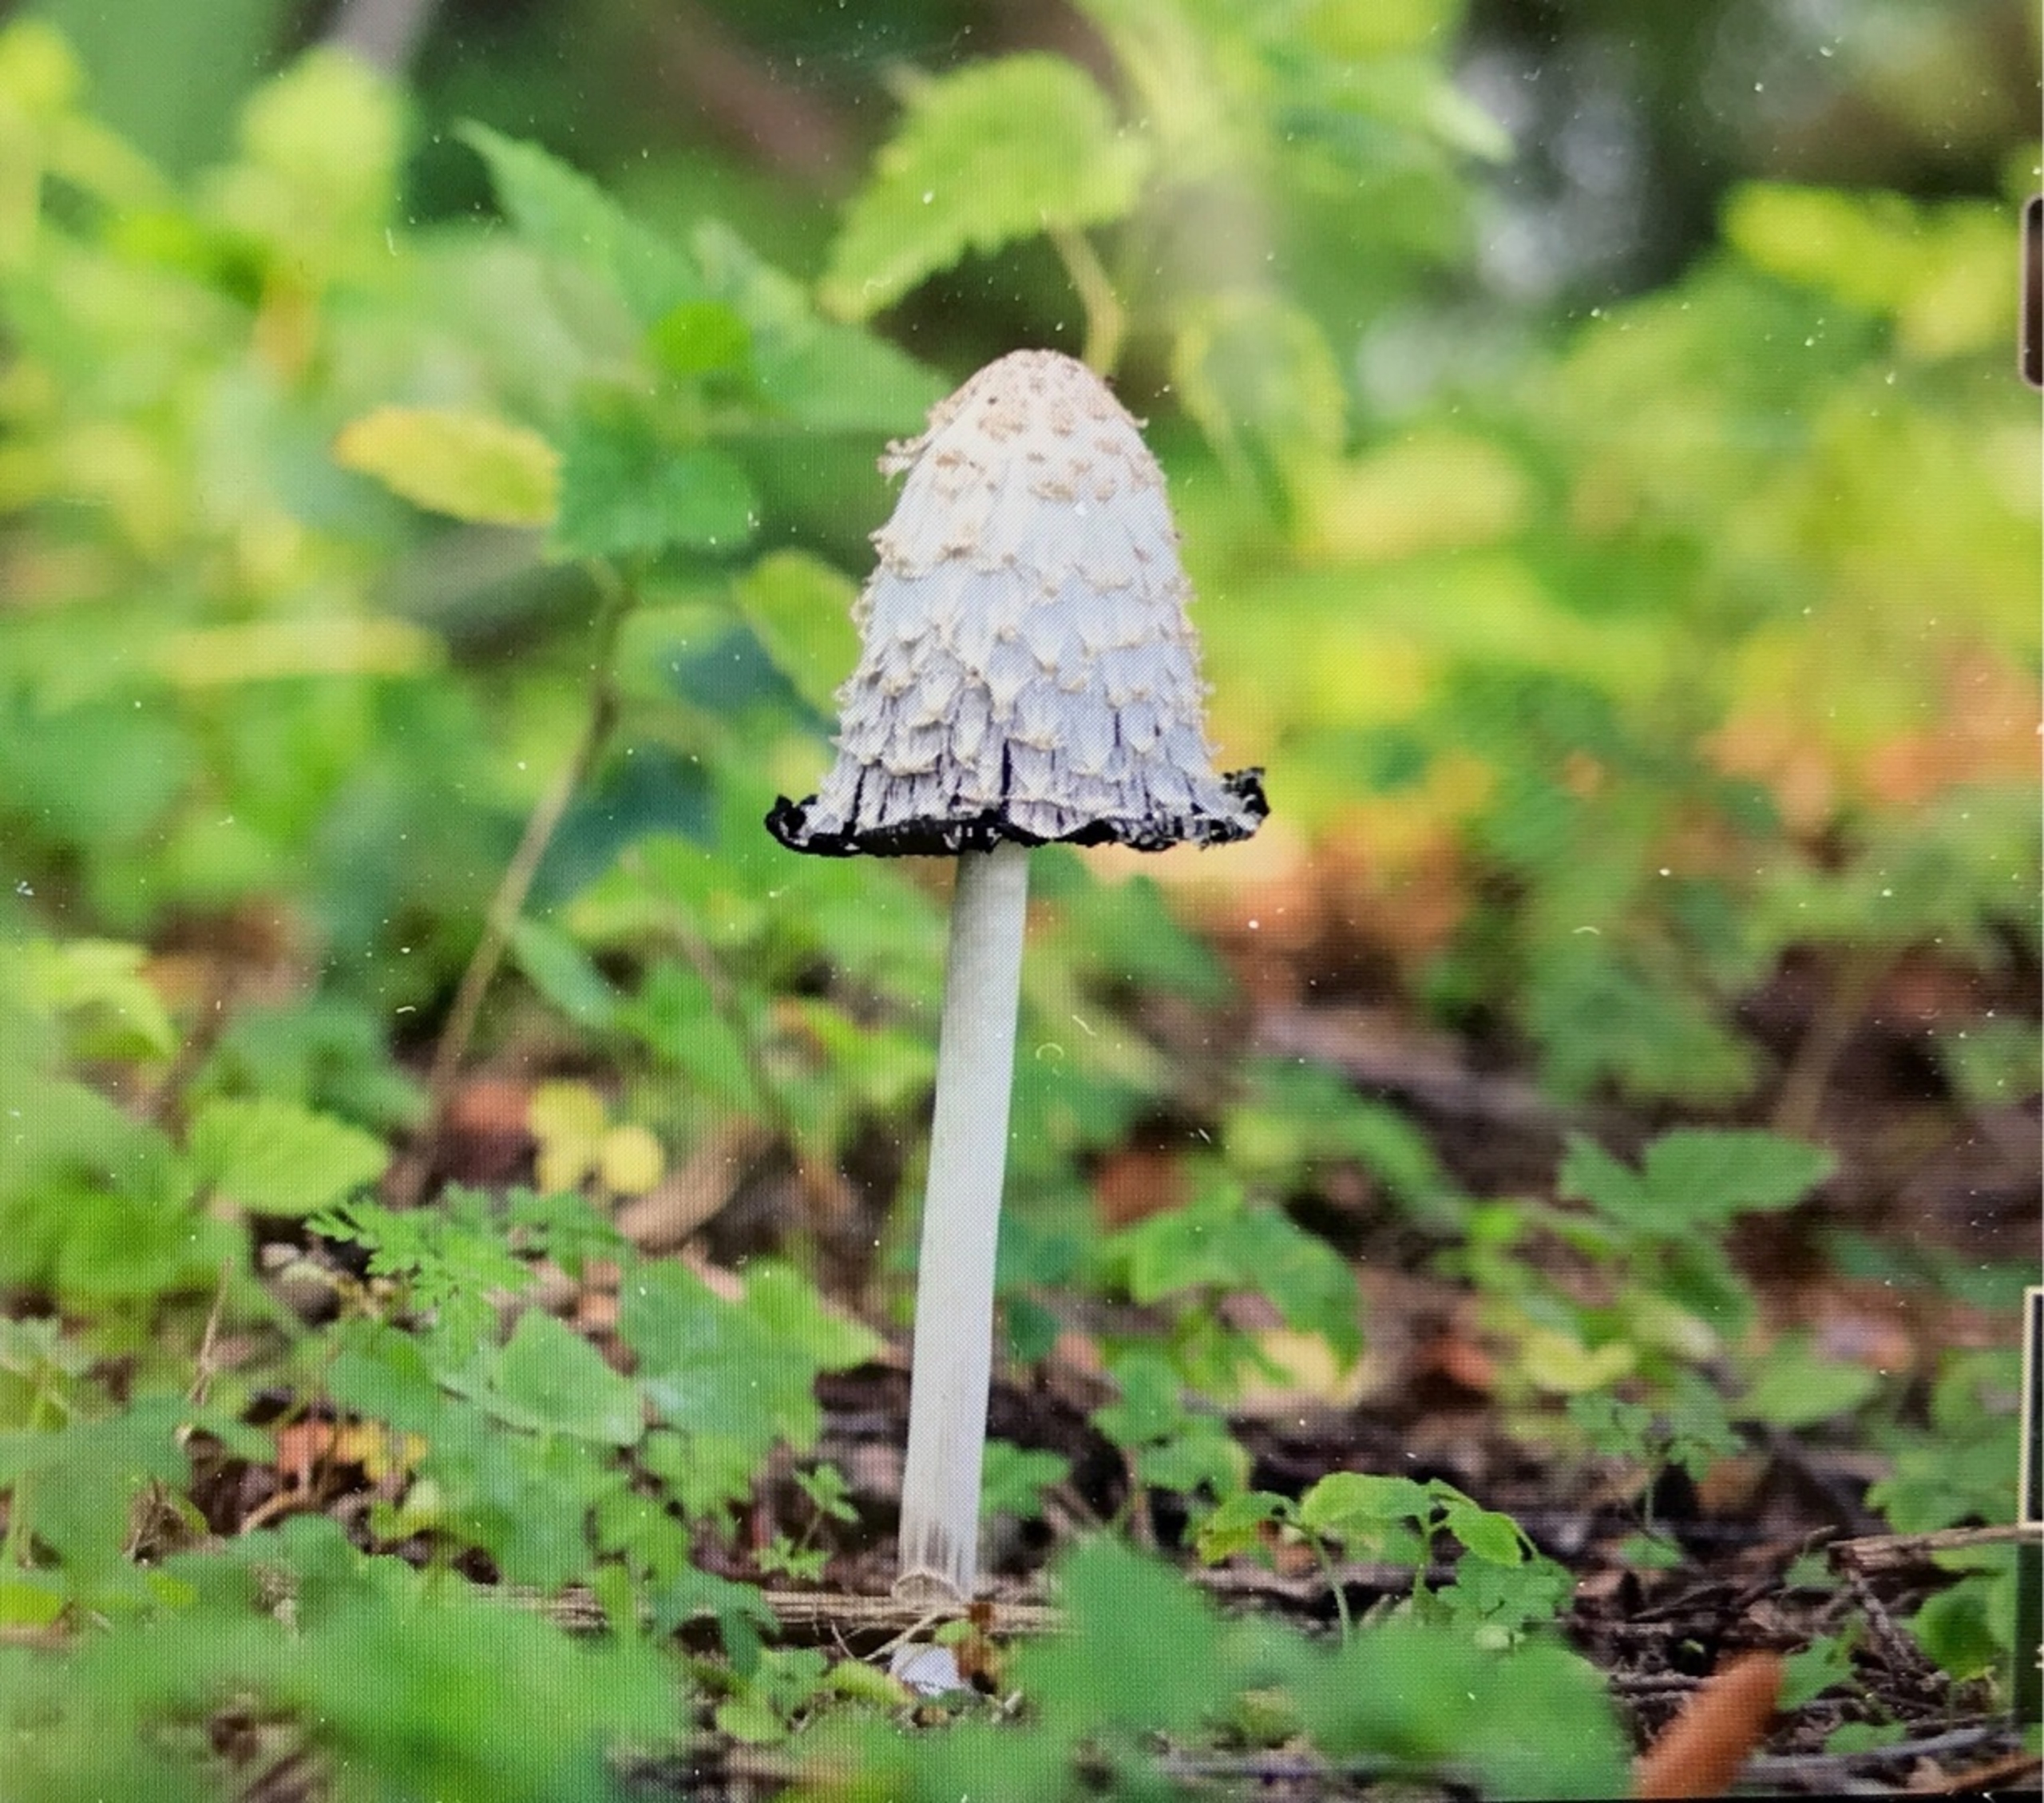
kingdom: Fungi
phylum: Basidiomycota
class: Agaricomycetes
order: Agaricales
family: Agaricaceae
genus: Coprinus
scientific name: Coprinus comatus
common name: Stor parykhat
